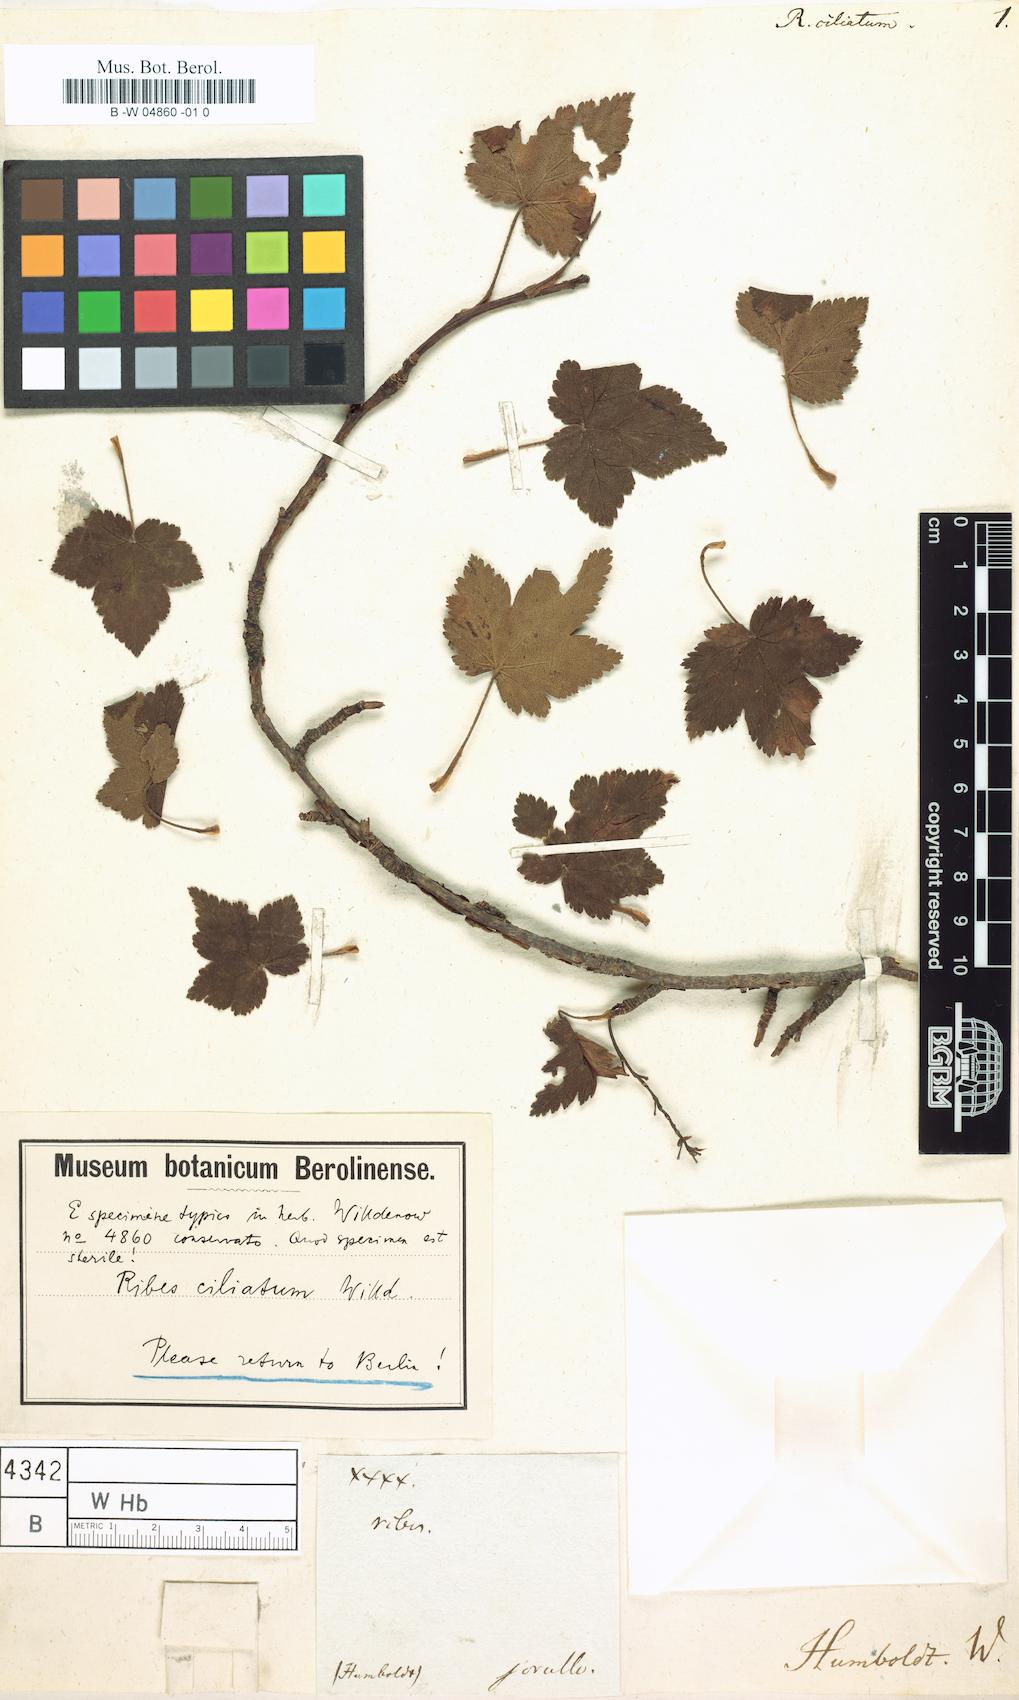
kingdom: Plantae
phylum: Tracheophyta
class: Magnoliopsida
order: Saxifragales
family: Grossulariaceae
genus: Ribes
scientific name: Ribes ciliatum
